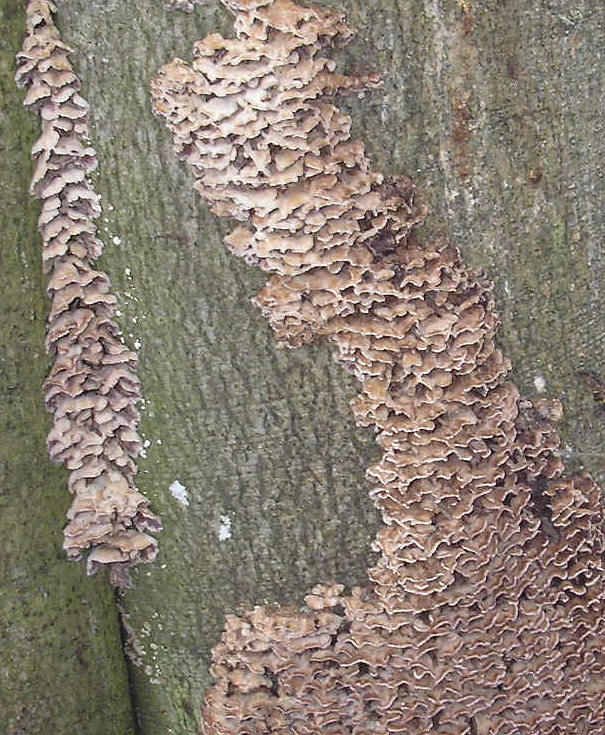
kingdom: Fungi
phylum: Basidiomycota
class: Agaricomycetes
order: Agaricales
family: Cyphellaceae
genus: Chondrostereum
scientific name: Chondrostereum purpureum
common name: purpurlædersvamp
